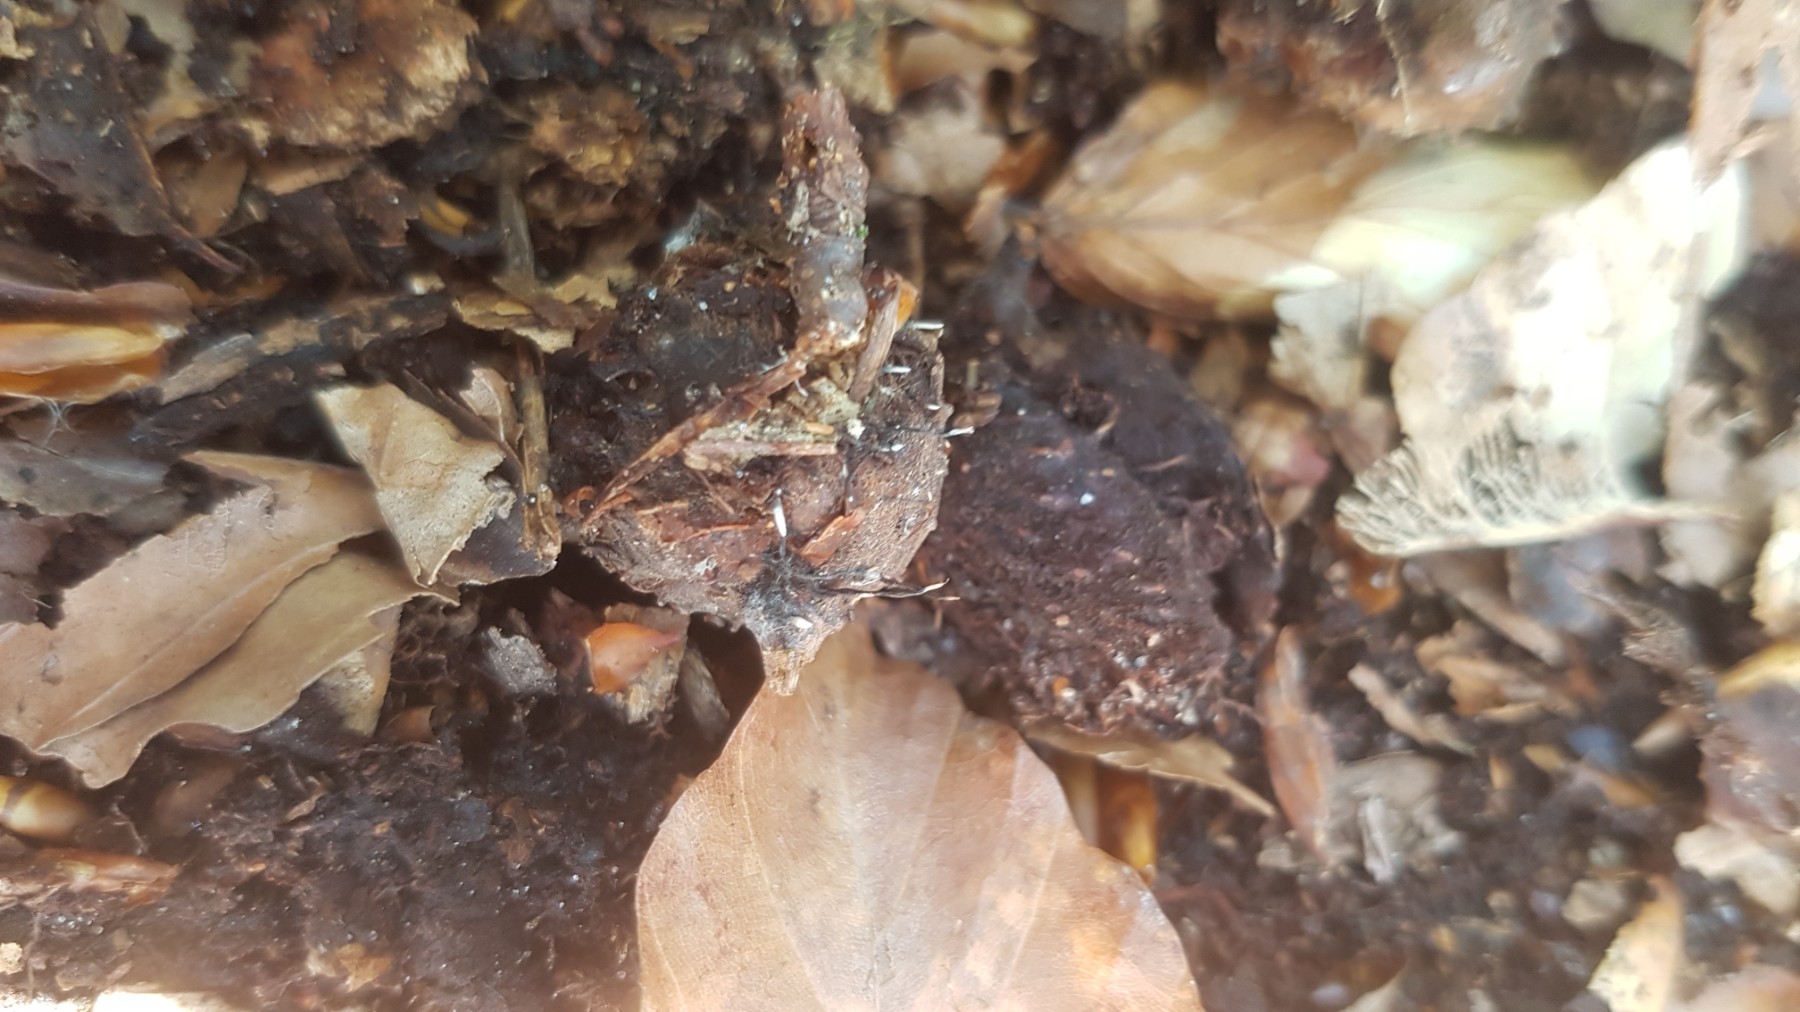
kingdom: Fungi
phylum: Ascomycota
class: Sordariomycetes
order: Xylariales
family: Xylariaceae
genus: Xylaria
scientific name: Xylaria carpophila
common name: bogskål-stødsvamp
